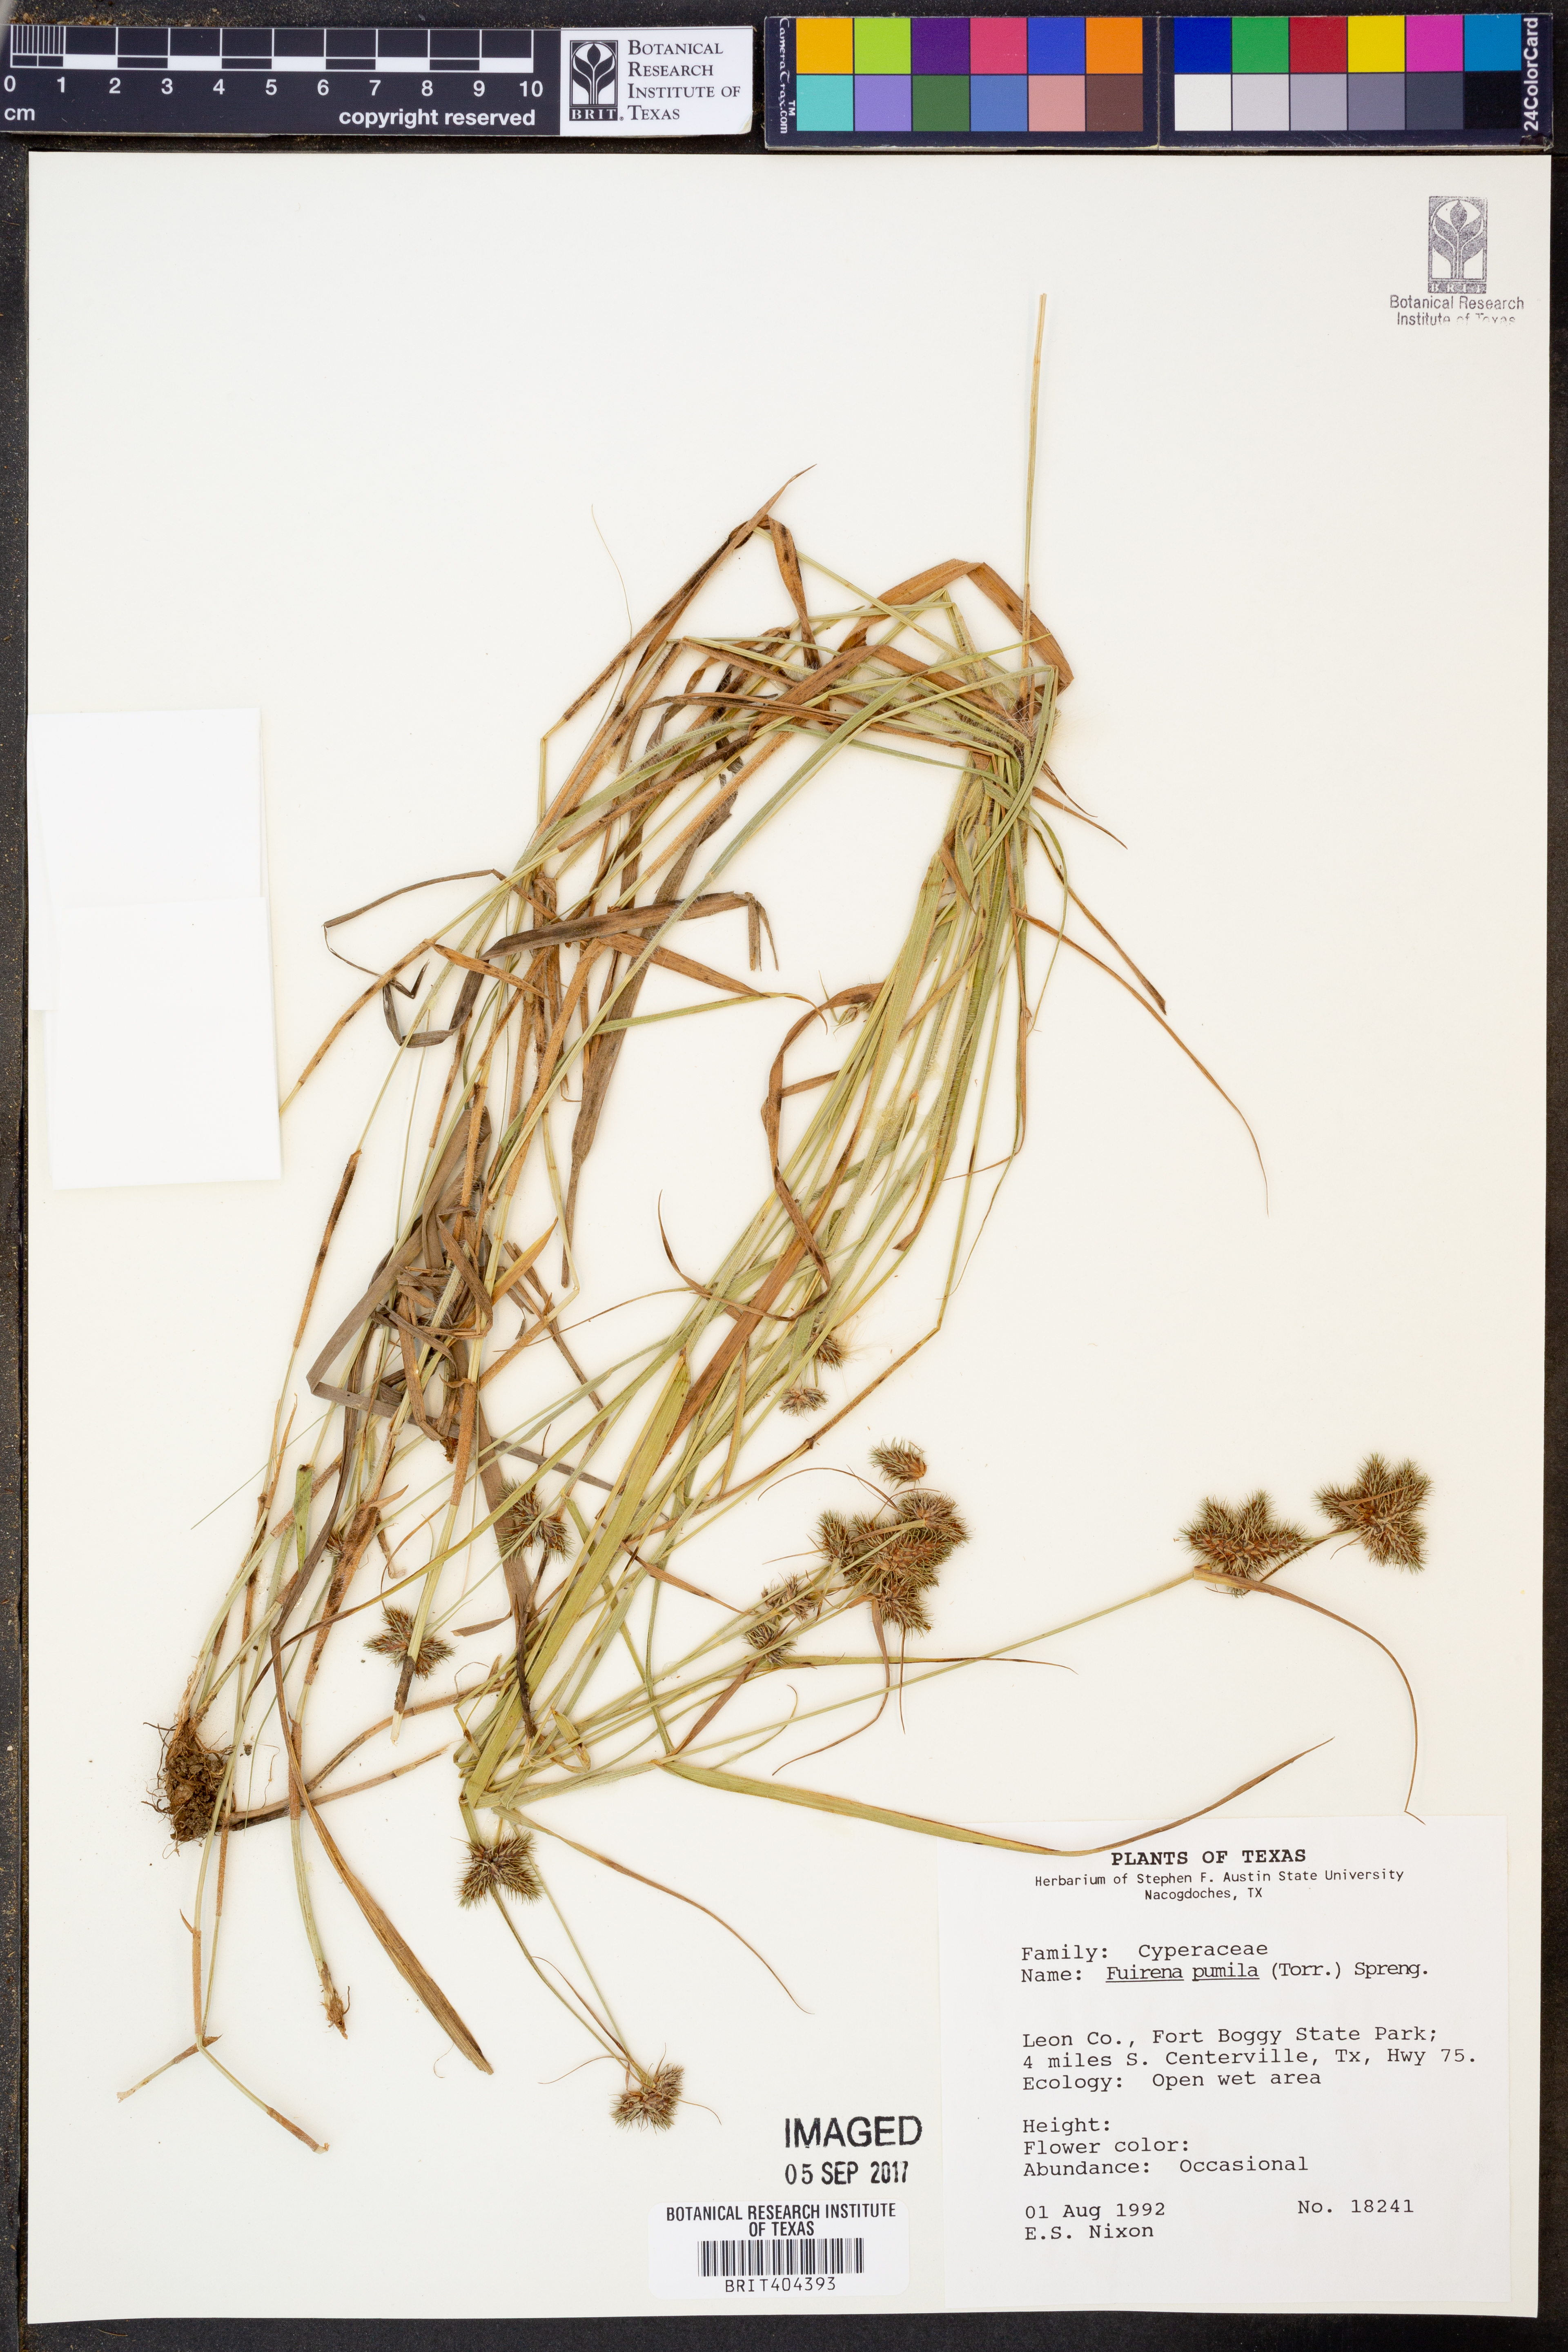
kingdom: Plantae
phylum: Tracheophyta
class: Liliopsida
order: Poales
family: Cyperaceae
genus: Fuirena
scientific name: Fuirena pumila
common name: Dwarf umbrella sedge
